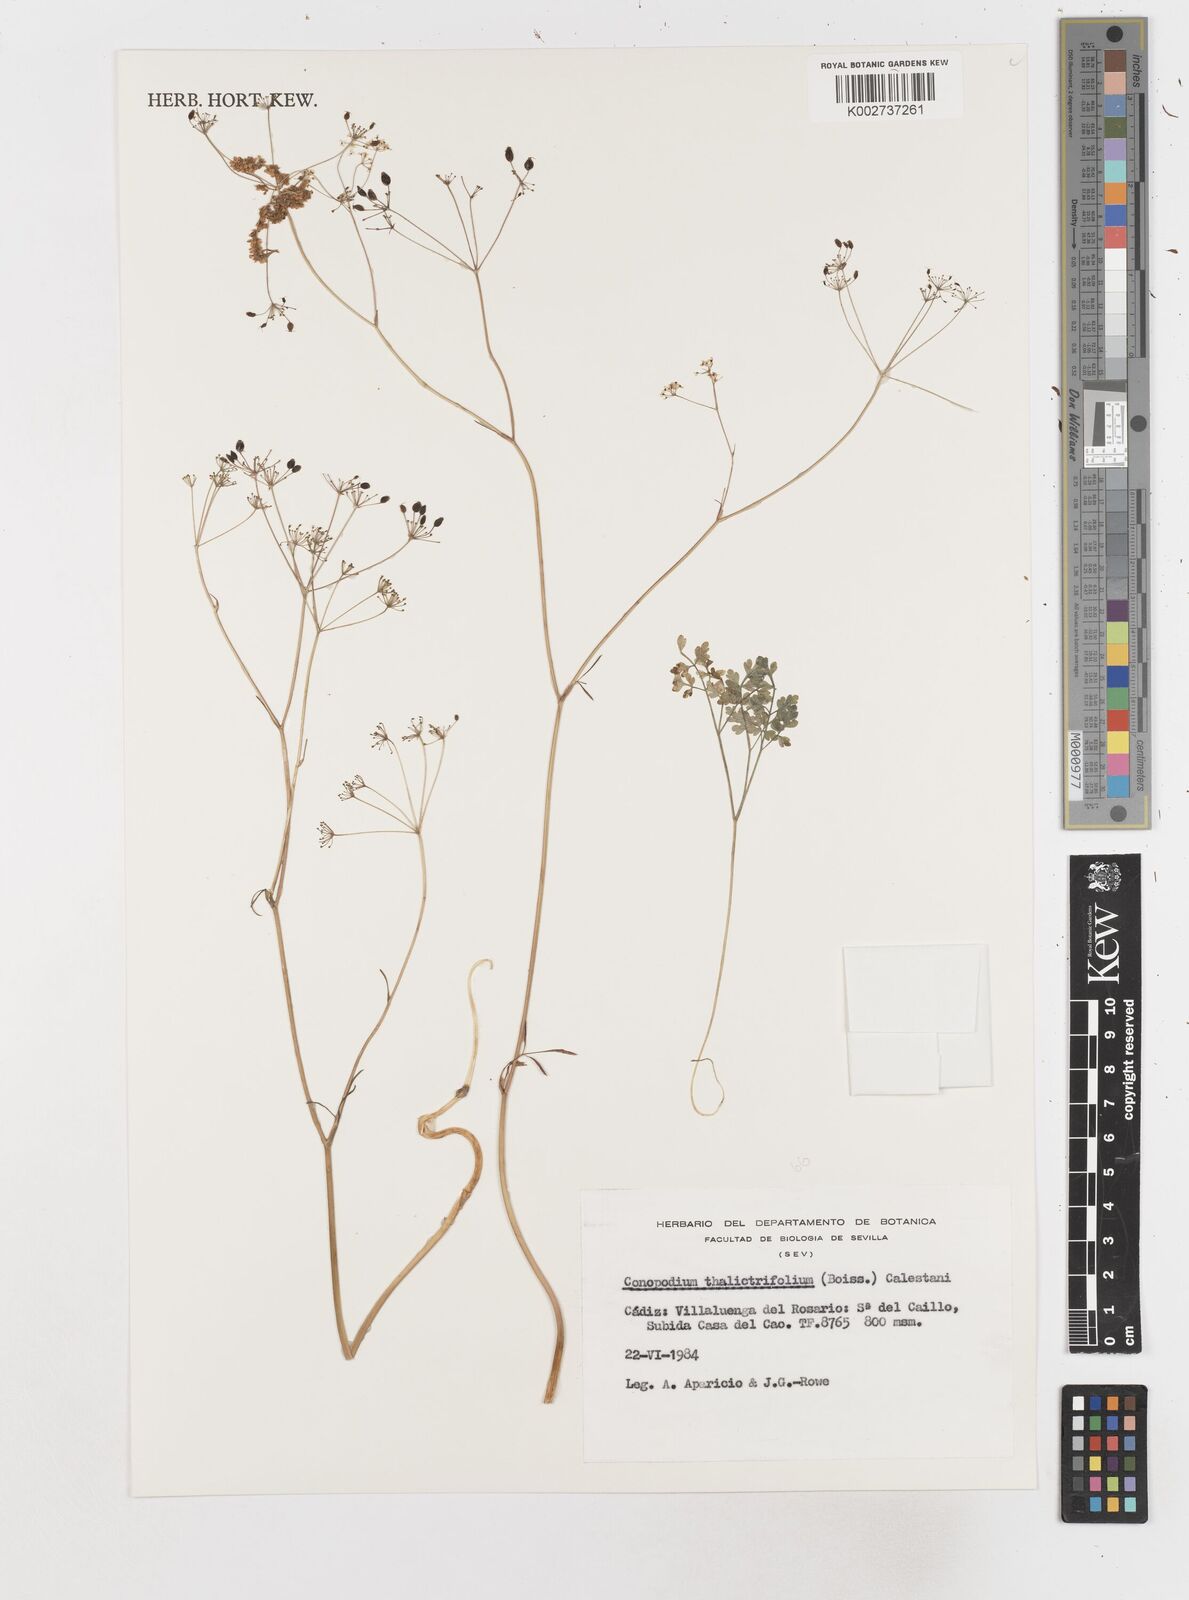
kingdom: Plantae
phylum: Tracheophyta
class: Magnoliopsida
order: Apiales
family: Apiaceae
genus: Conopodium
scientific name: Conopodium thalictrifolium
